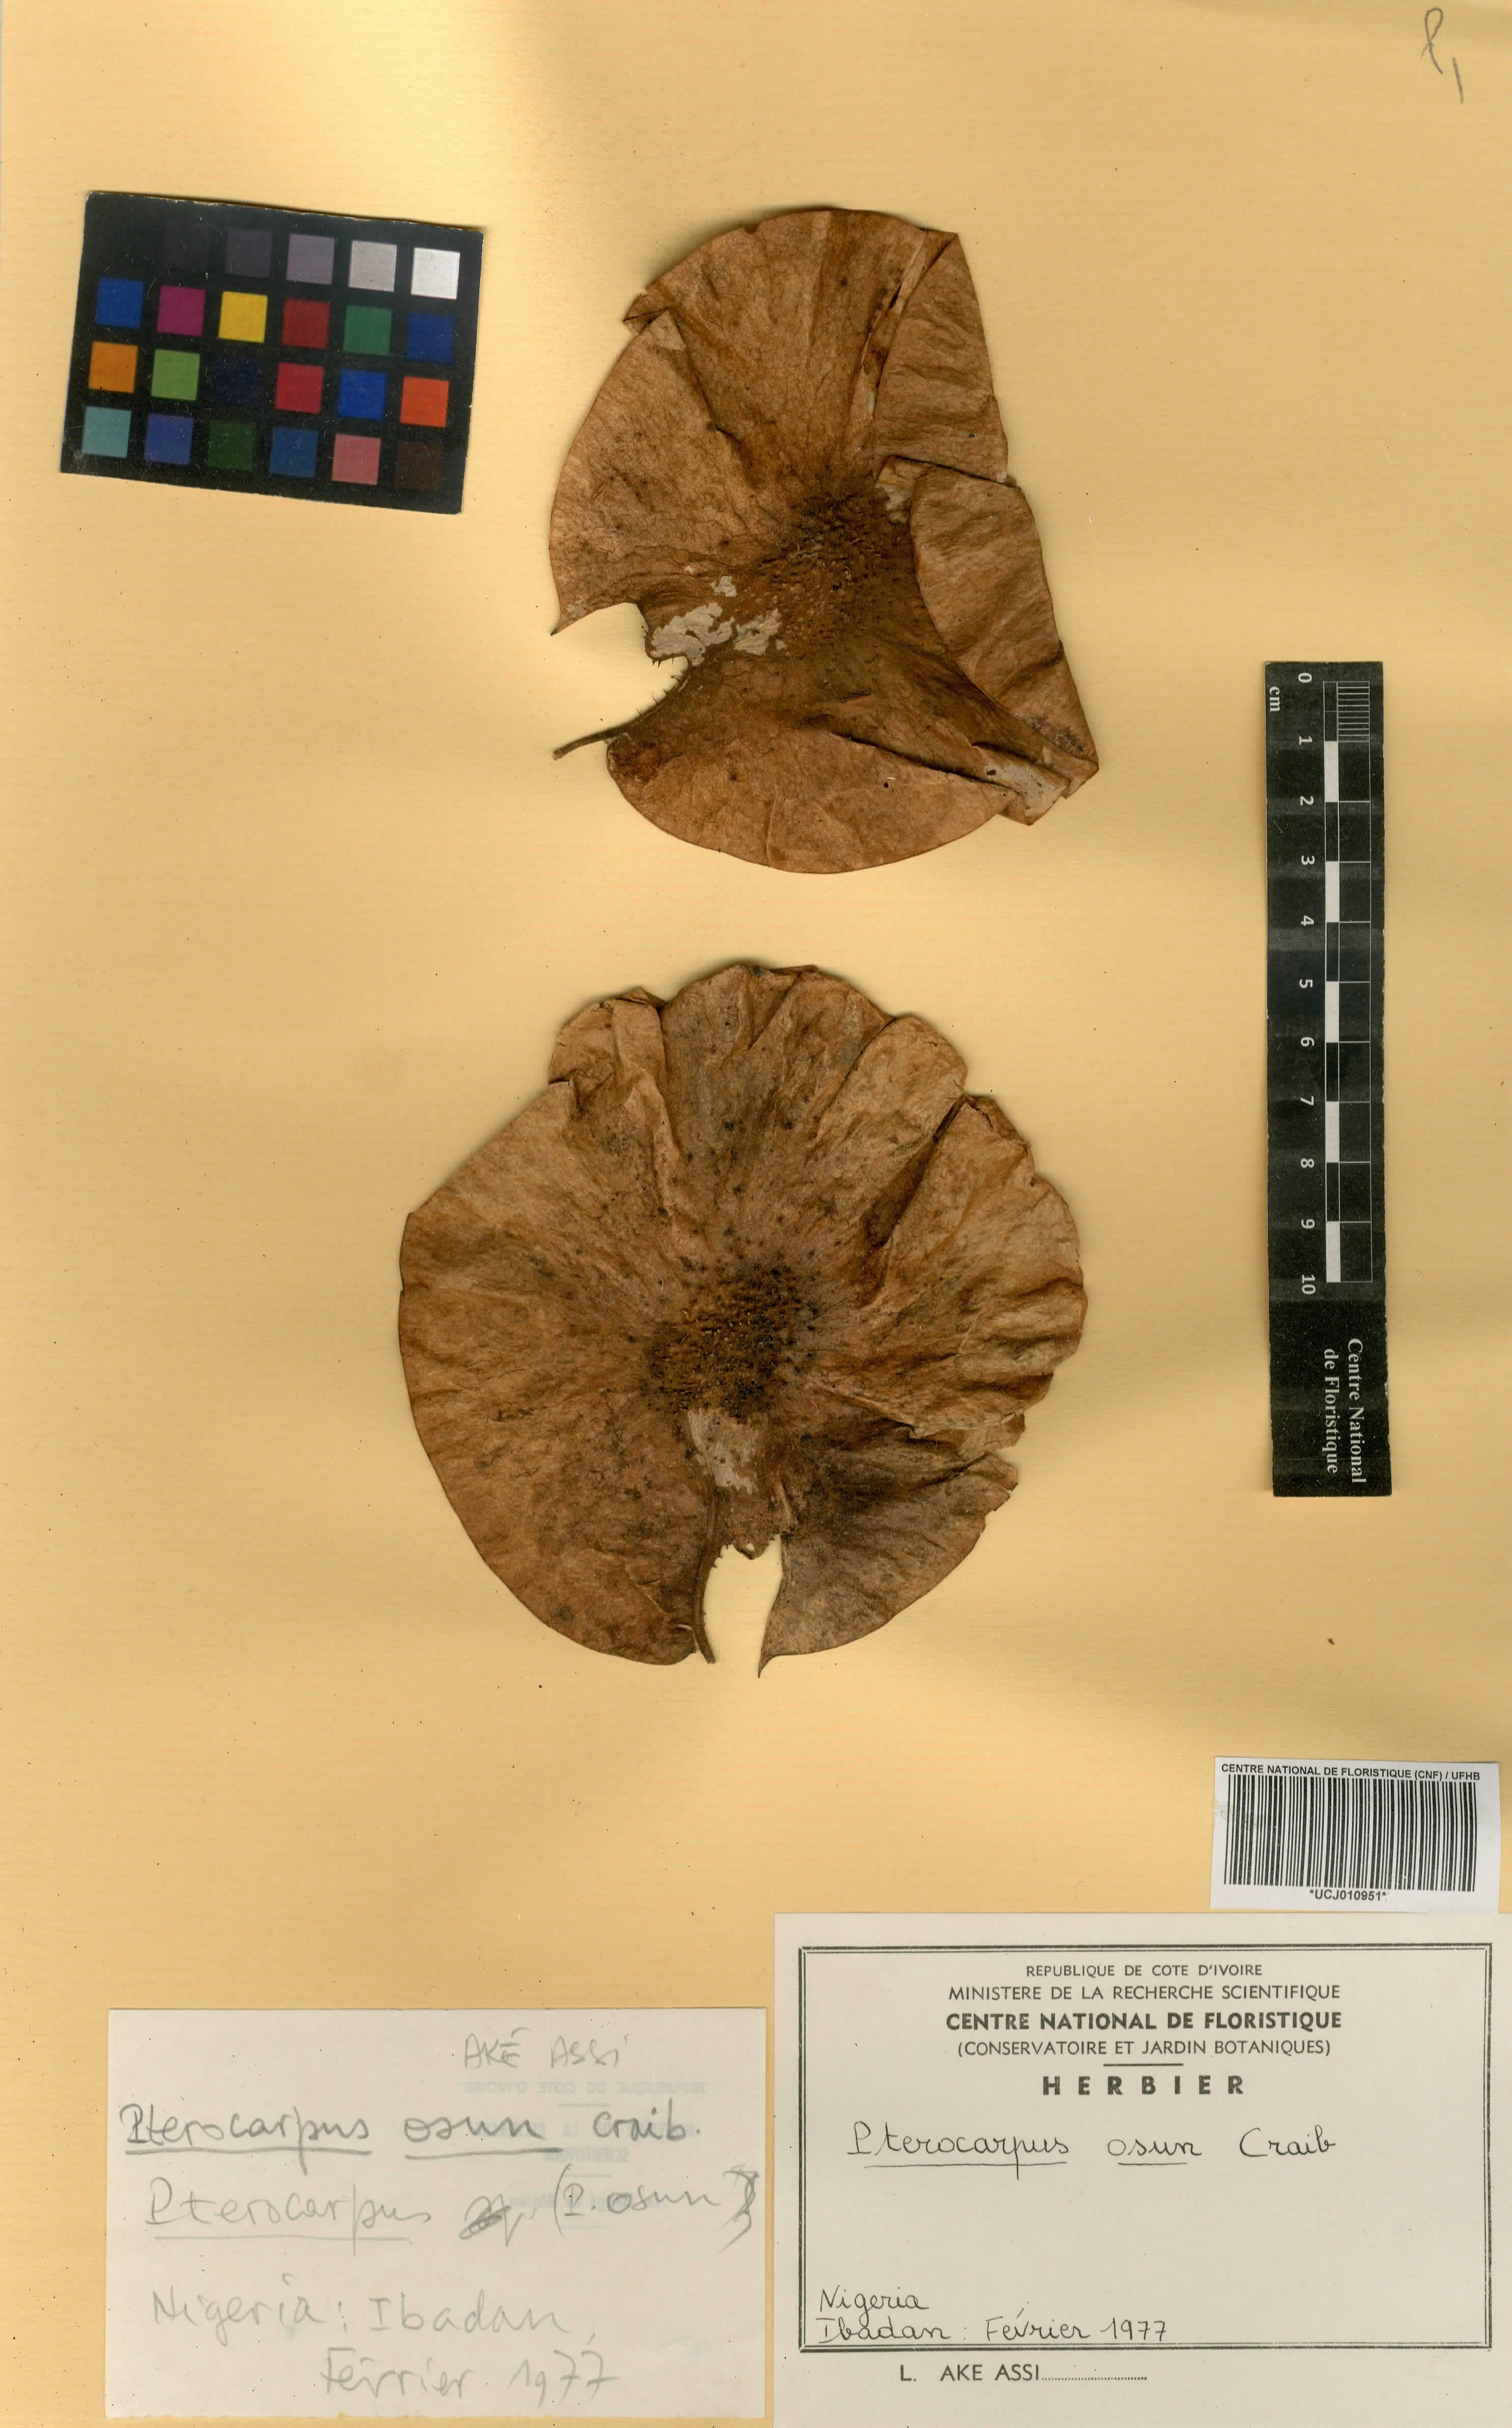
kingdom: Plantae
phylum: Tracheophyta
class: Magnoliopsida
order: Fabales
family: Fabaceae
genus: Pterocarpus
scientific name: Pterocarpus osun
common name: Camwood
